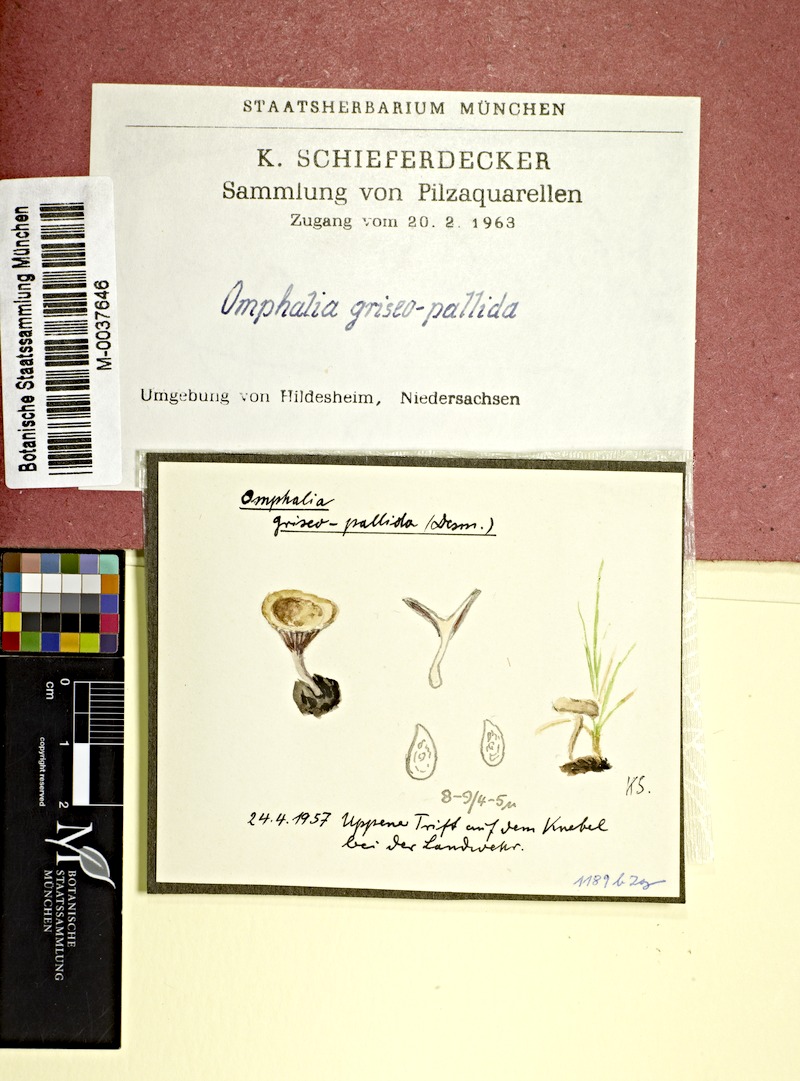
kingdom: Fungi
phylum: Basidiomycota
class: Agaricomycetes
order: Agaricales
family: Hygrophoraceae
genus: Arrhenia
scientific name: Arrhenia griseopallida
